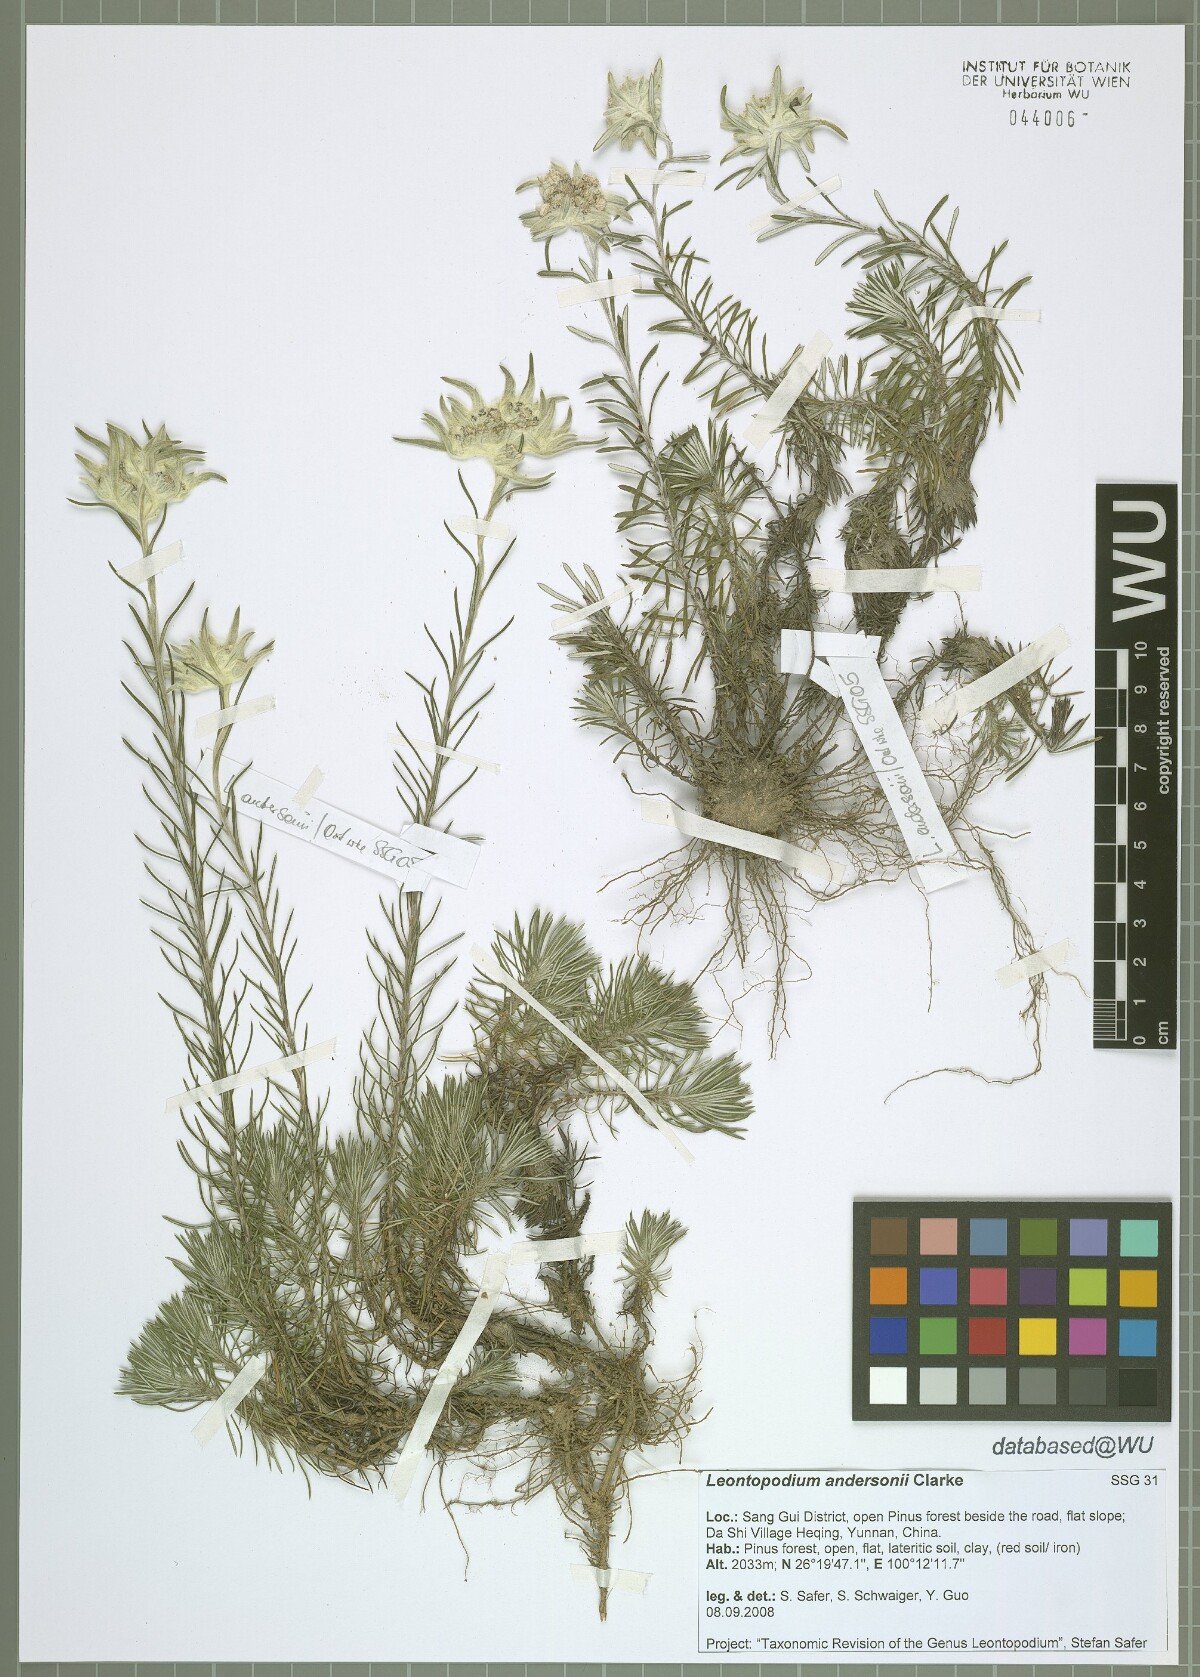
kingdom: Plantae
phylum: Tracheophyta
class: Magnoliopsida
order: Asterales
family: Asteraceae
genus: Leontopodium
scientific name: Leontopodium andersonii
